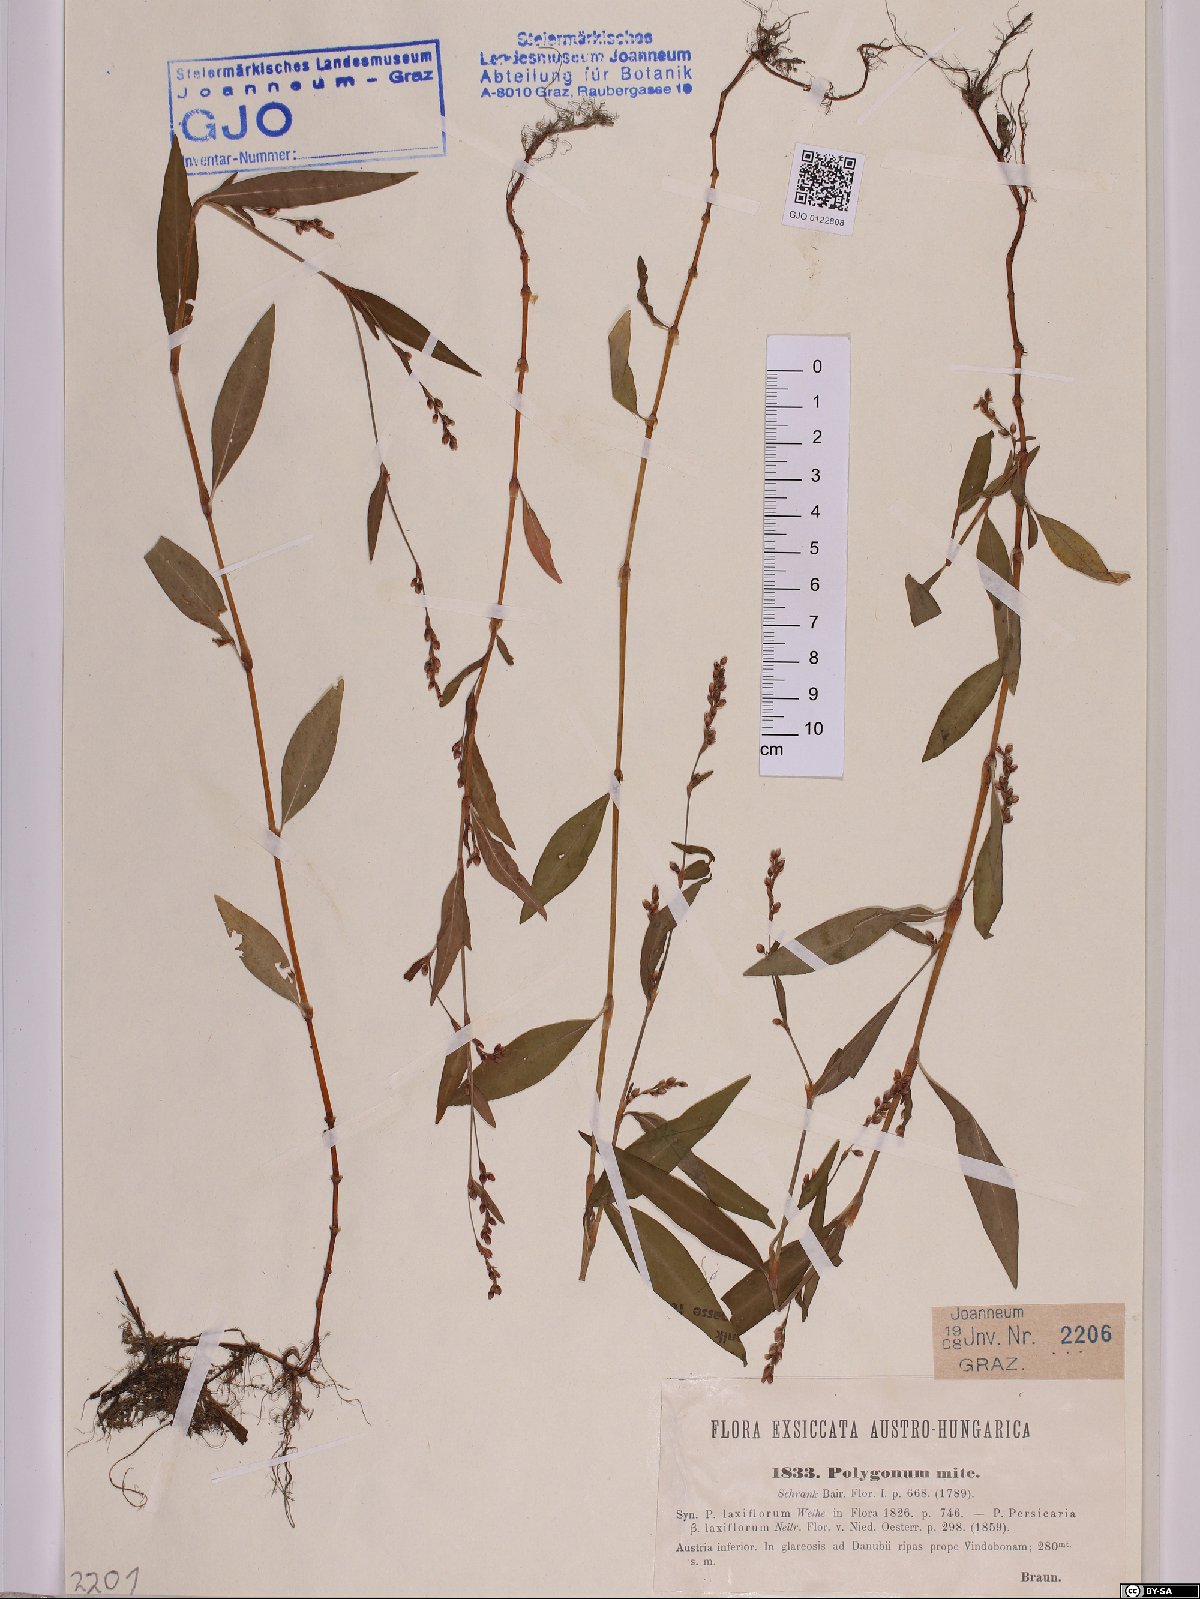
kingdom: Plantae
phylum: Tracheophyta
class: Magnoliopsida
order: Caryophyllales
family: Polygonaceae
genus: Persicaria
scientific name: Persicaria mitis
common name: Tasteless water-pepper
